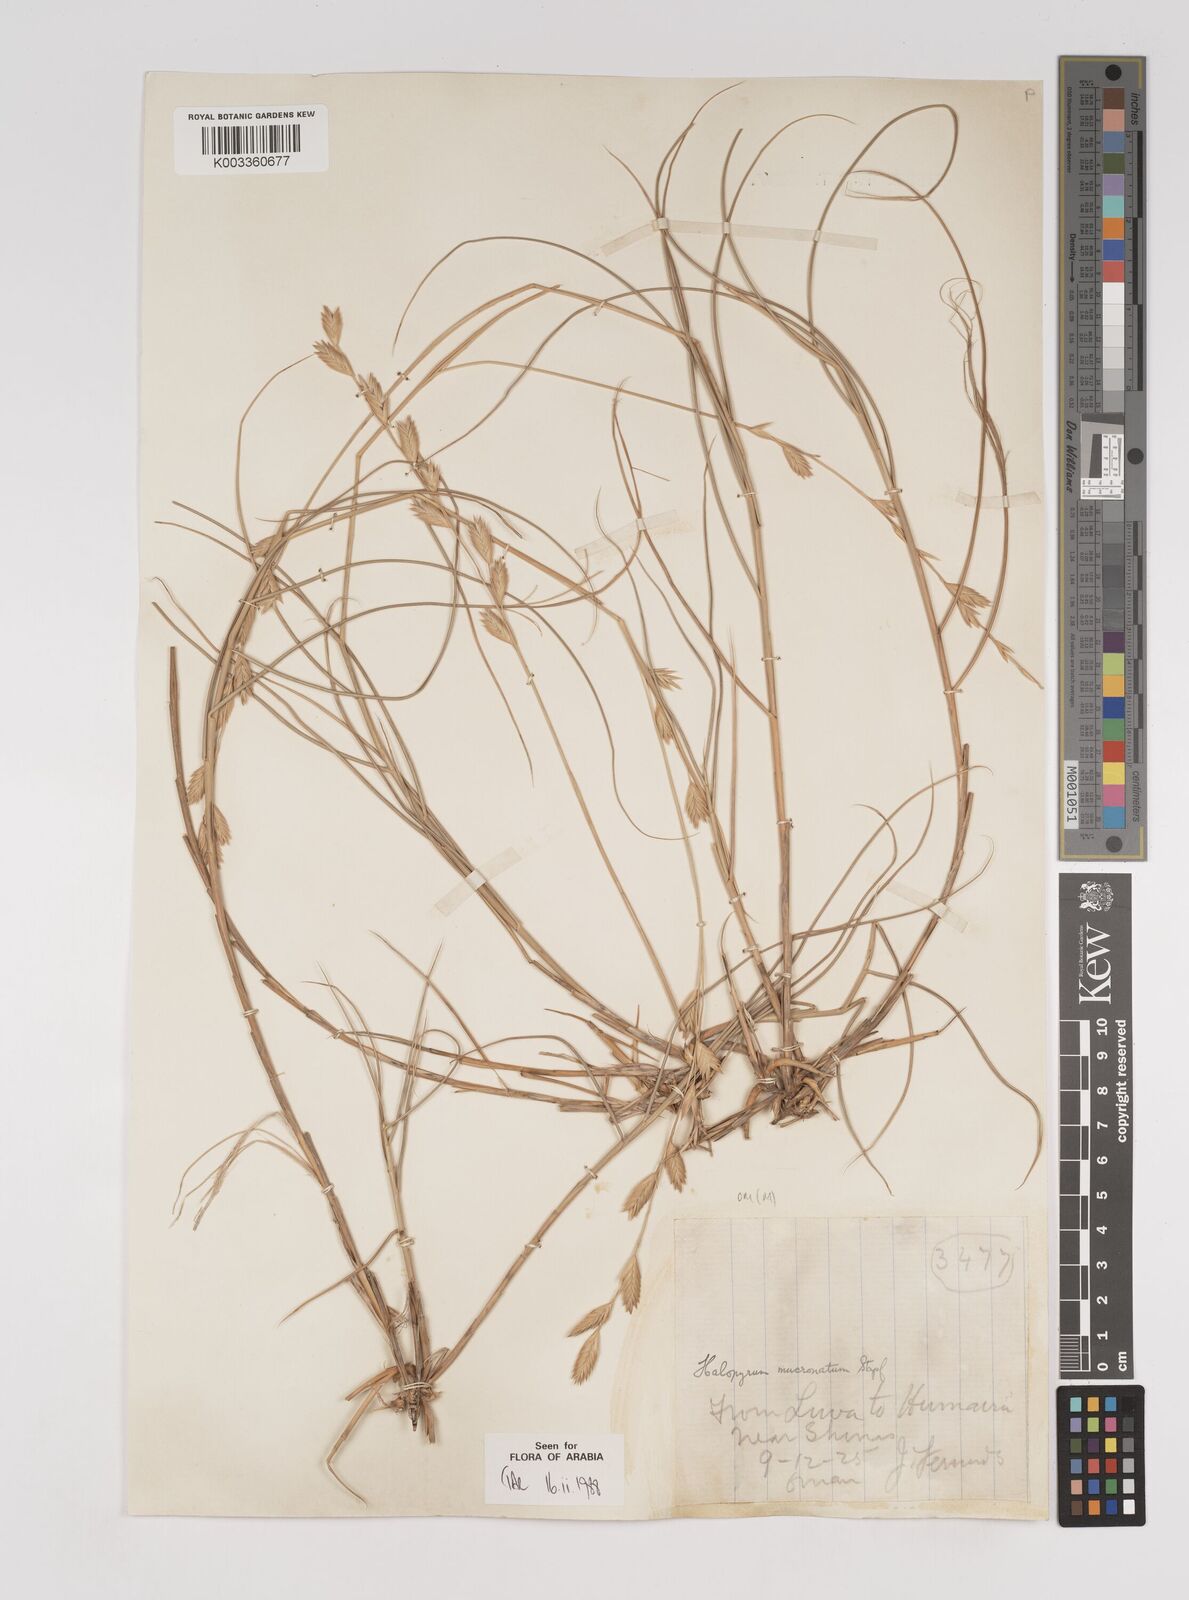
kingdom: Plantae
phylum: Tracheophyta
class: Liliopsida
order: Poales
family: Poaceae
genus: Halopyrum
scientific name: Halopyrum mucronatum
